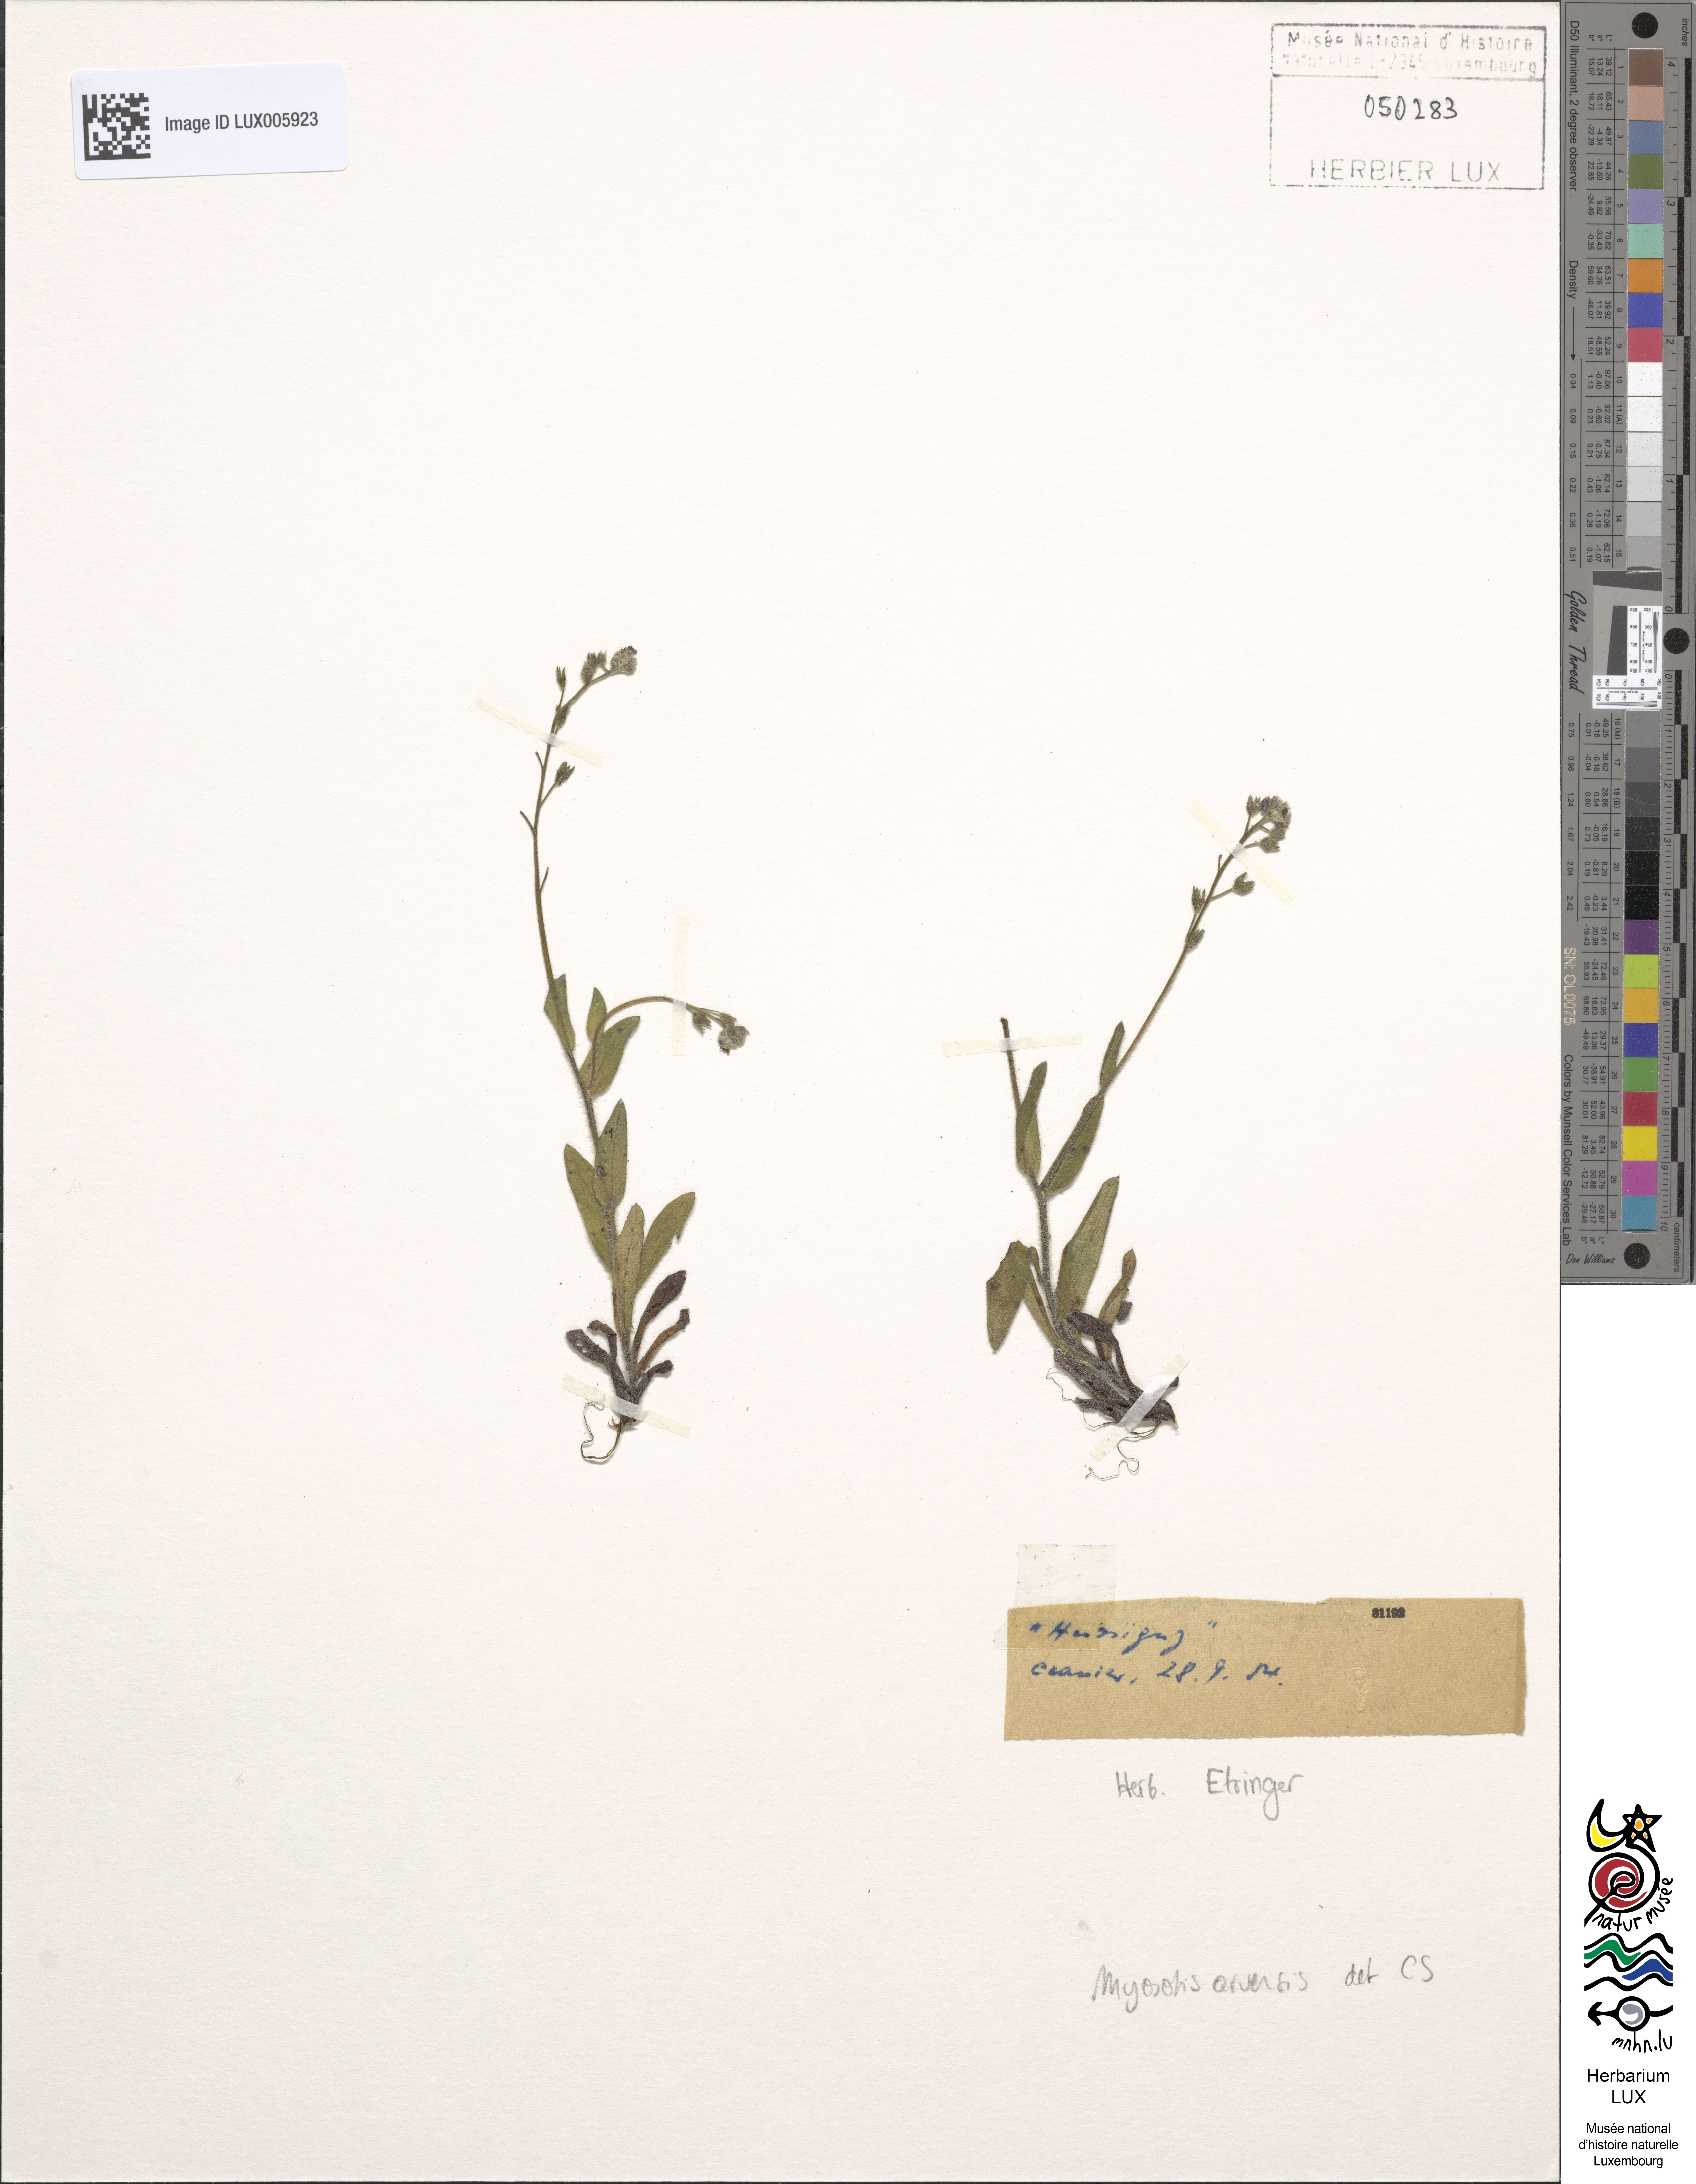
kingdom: Plantae
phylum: Tracheophyta
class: Magnoliopsida
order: Boraginales
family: Boraginaceae
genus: Myosotis
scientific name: Myosotis arvensis
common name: Field forget-me-not
